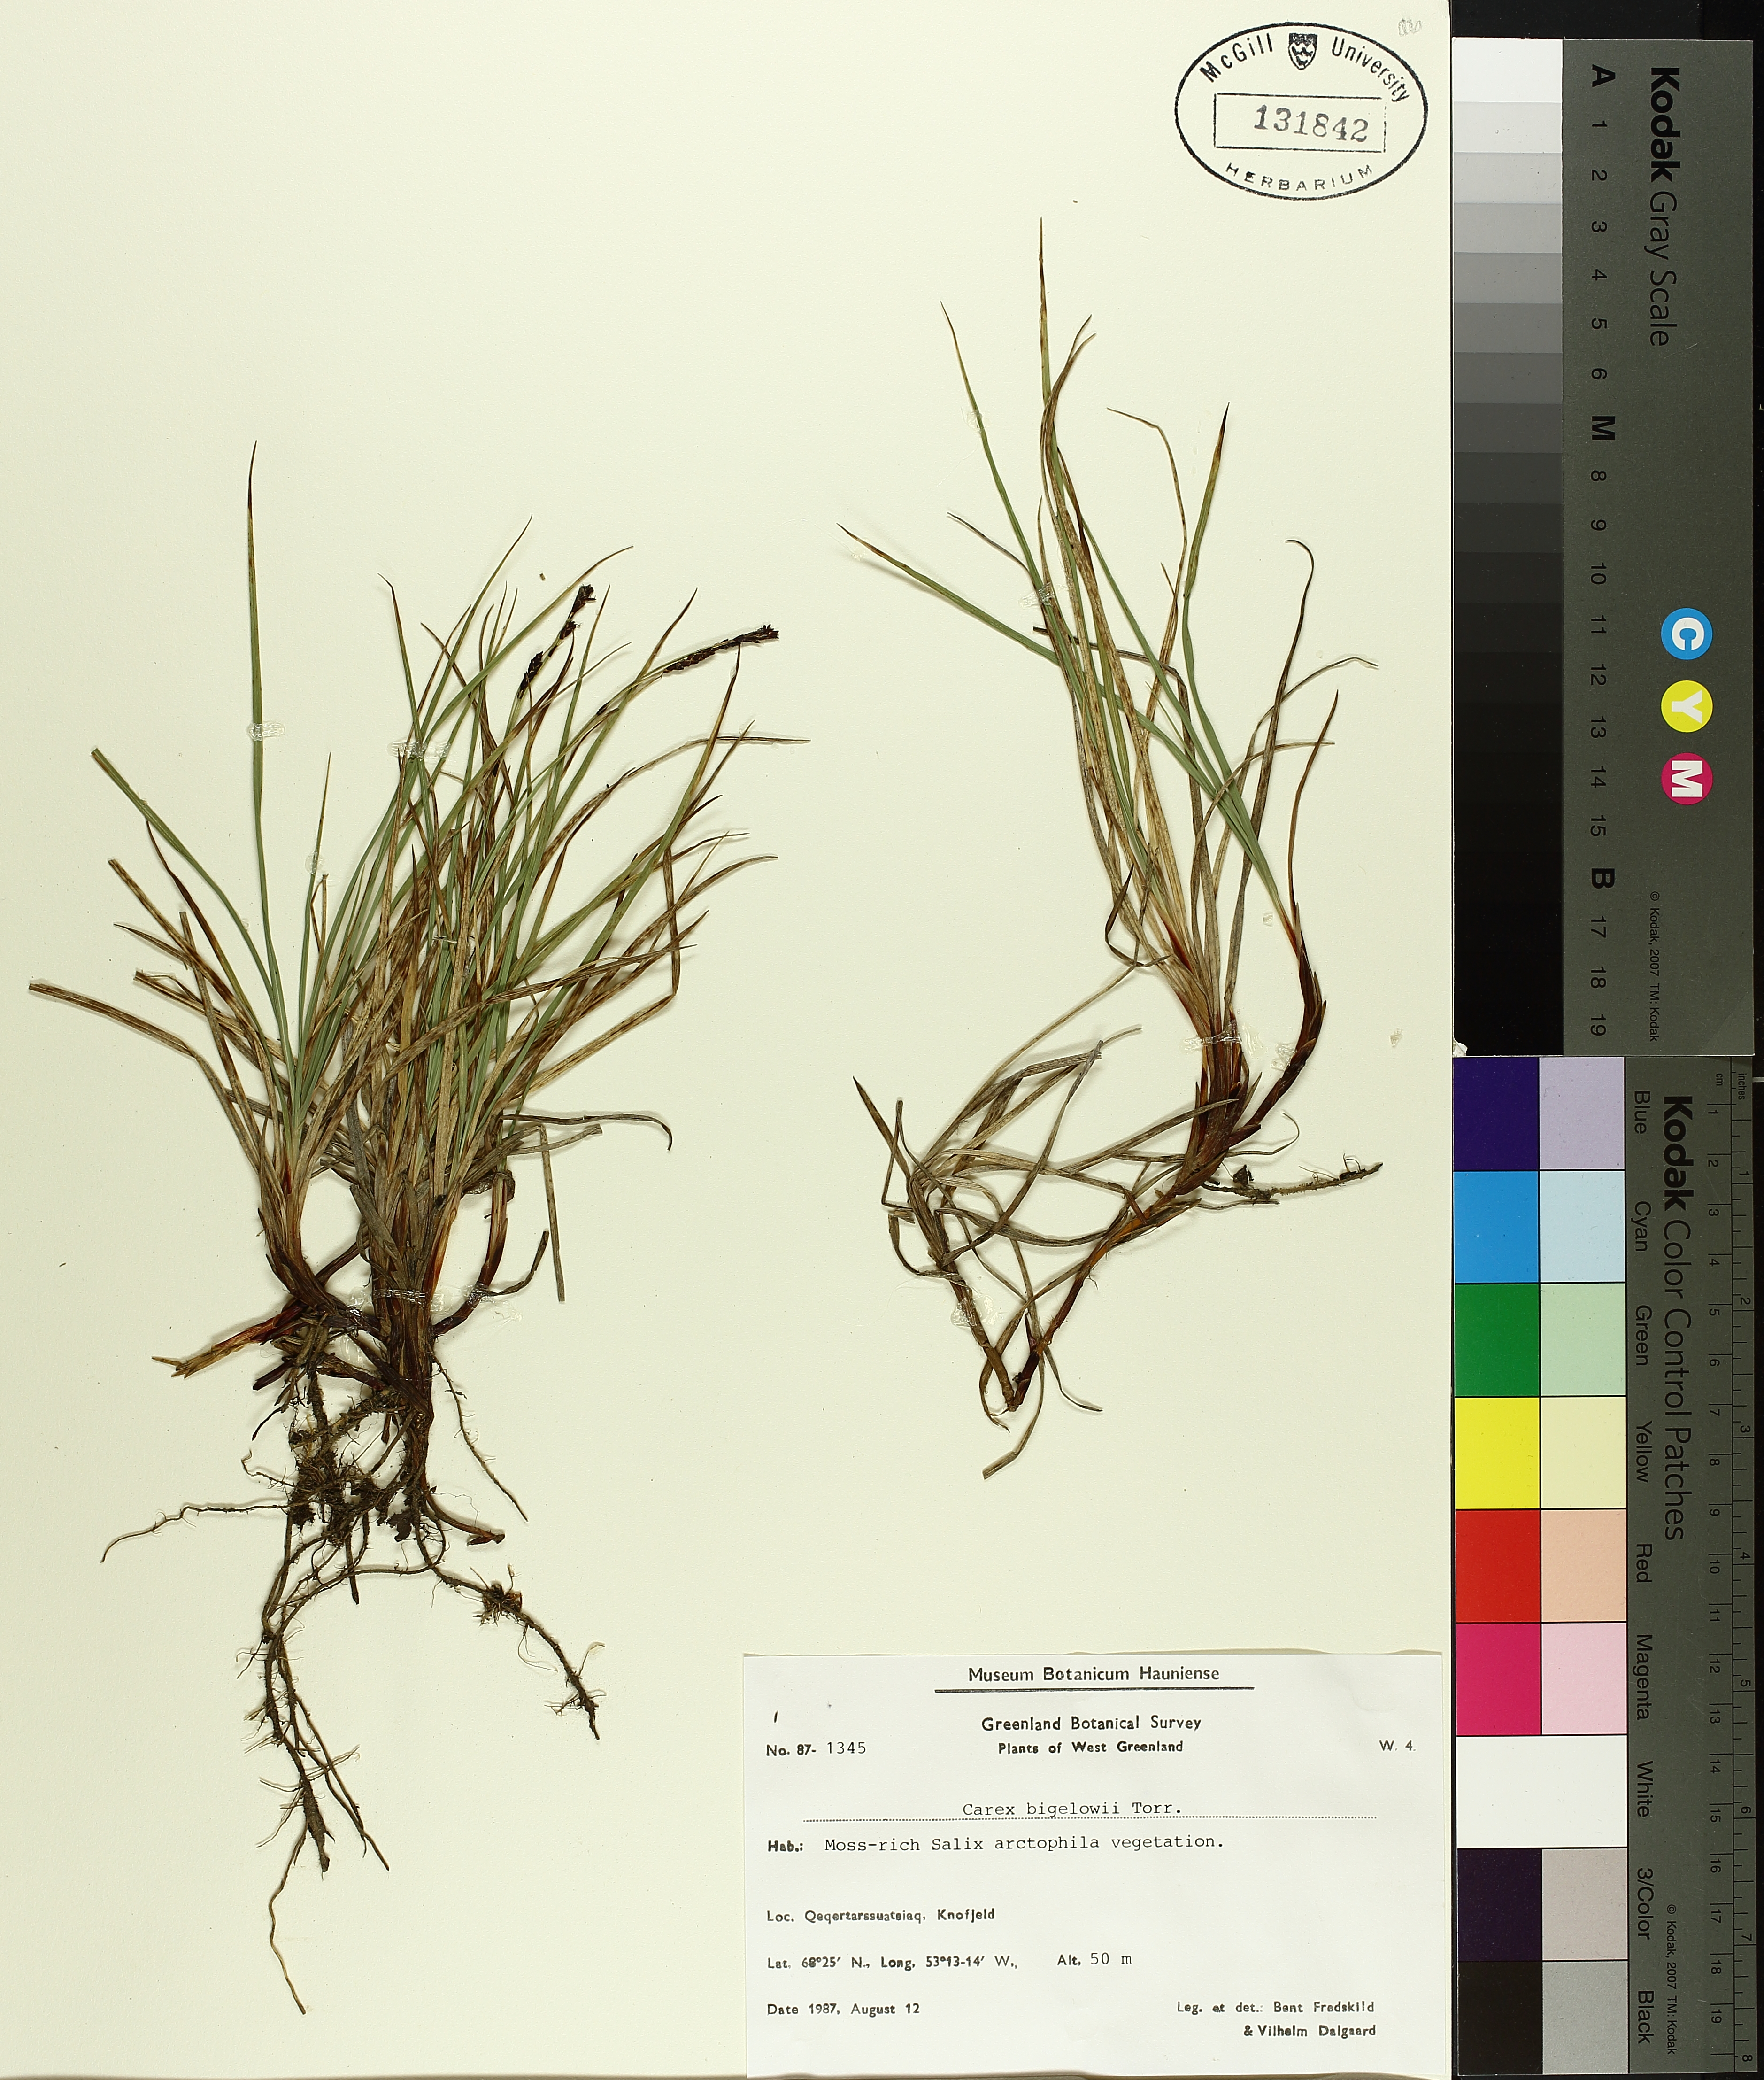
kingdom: Plantae
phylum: Tracheophyta
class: Liliopsida
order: Poales
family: Cyperaceae
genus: Carex
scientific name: Carex bigelowii
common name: Stiff sedge
